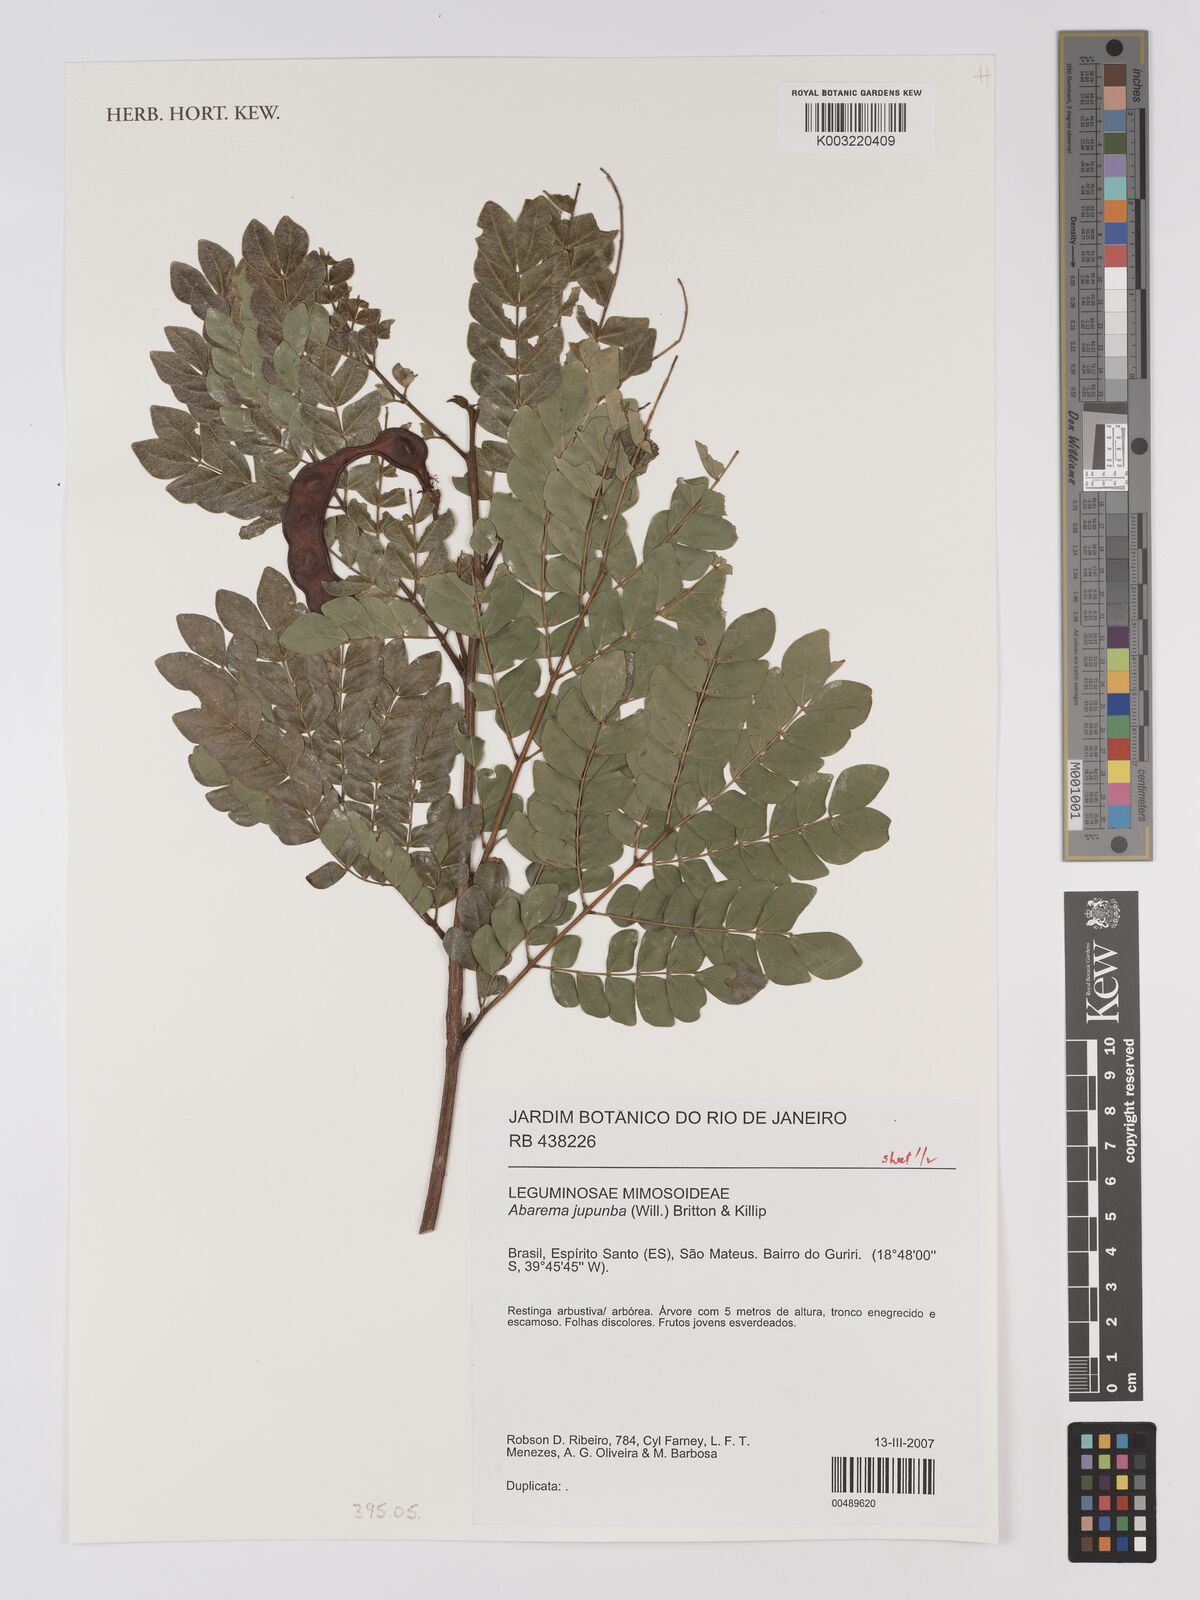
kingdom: Plantae
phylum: Tracheophyta
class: Magnoliopsida
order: Fabales
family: Fabaceae
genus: Jupunba
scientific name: Jupunba trapezifolia
